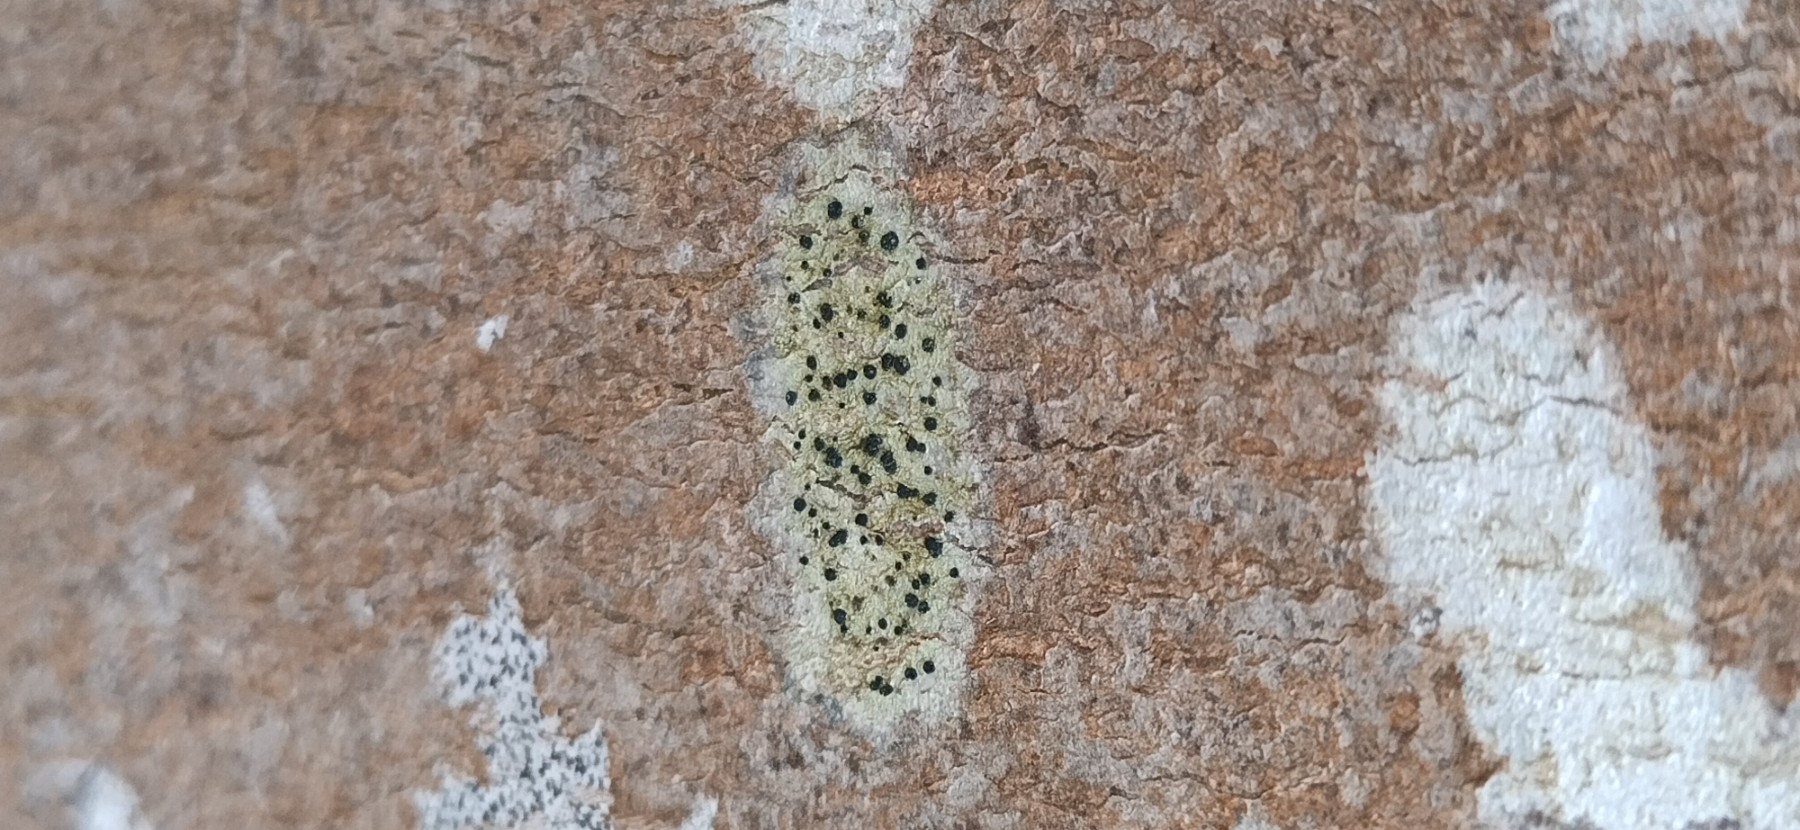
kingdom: Fungi
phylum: Ascomycota
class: Lecanoromycetes
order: Lecanorales
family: Lecanoraceae
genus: Lecidella
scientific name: Lecidella elaeochroma
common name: grågrøn skivelav
